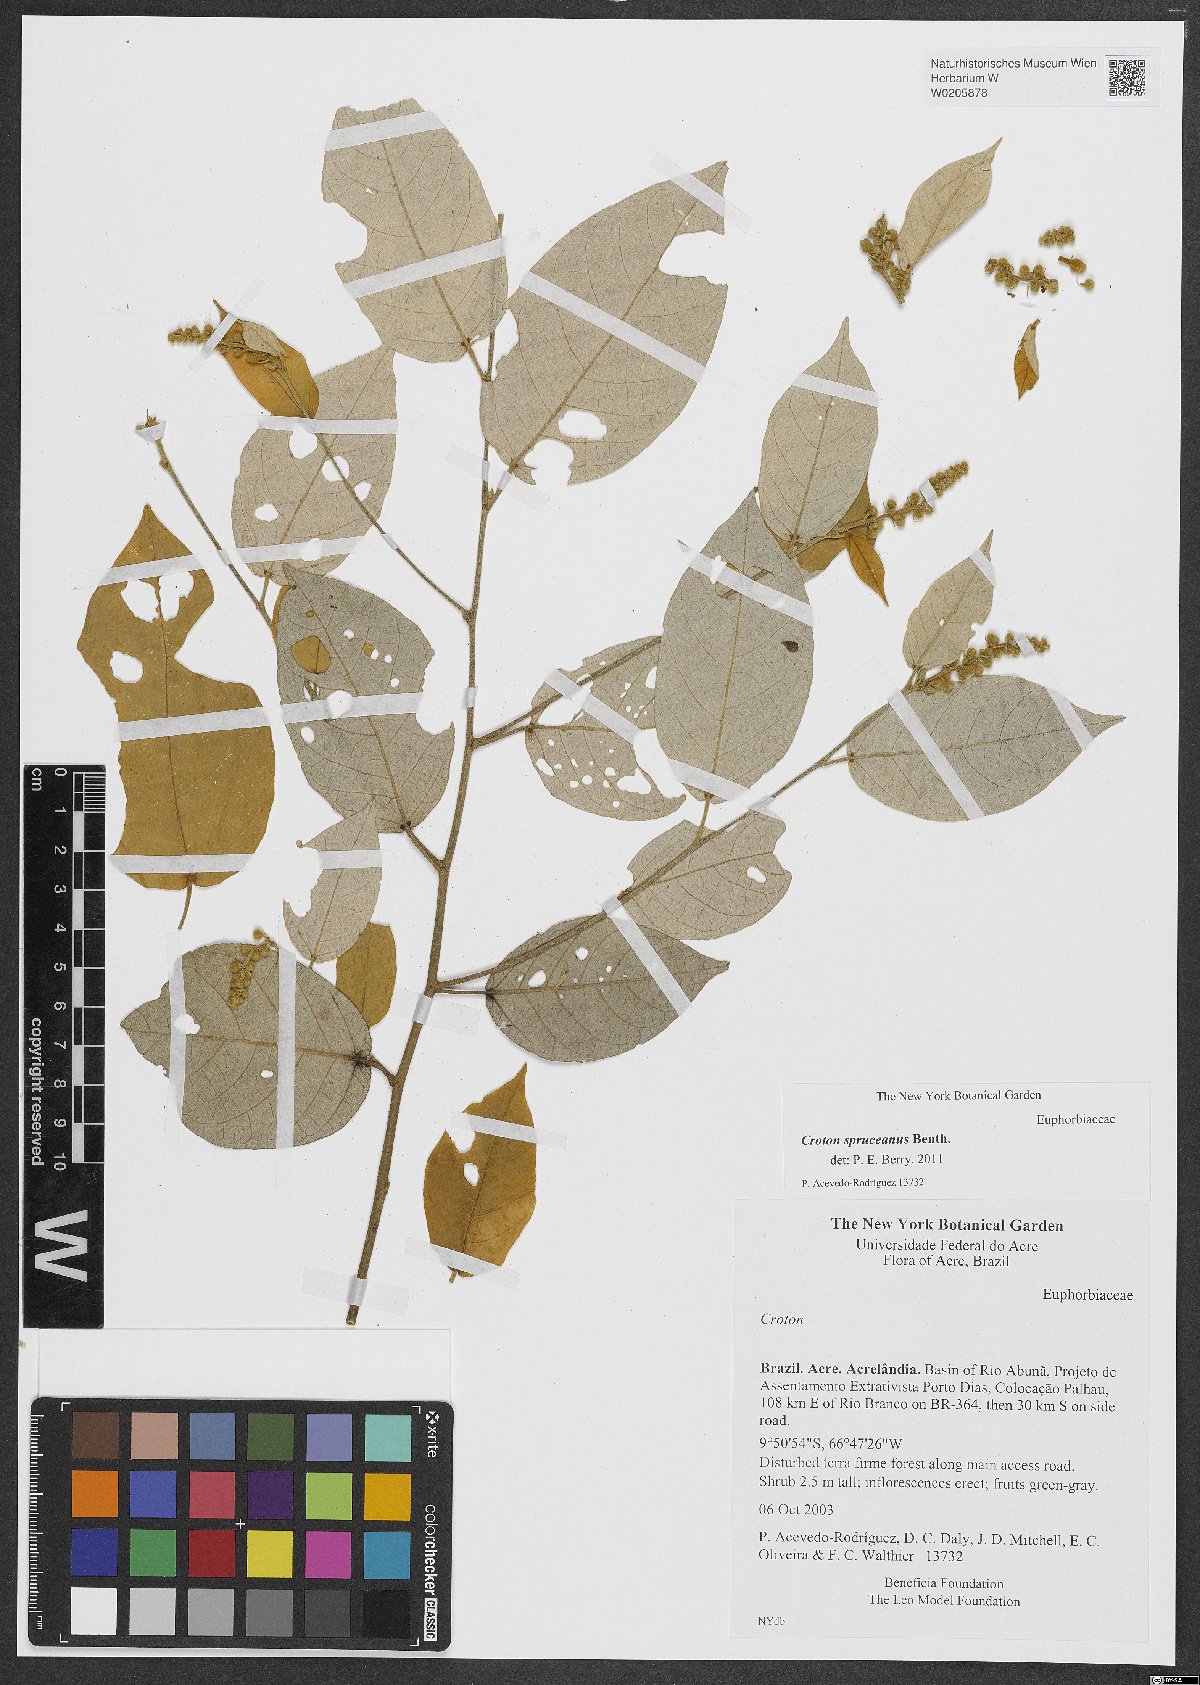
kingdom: Plantae
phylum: Tracheophyta
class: Magnoliopsida
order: Malpighiales
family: Euphorbiaceae
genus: Croton
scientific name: Croton spruceanus
